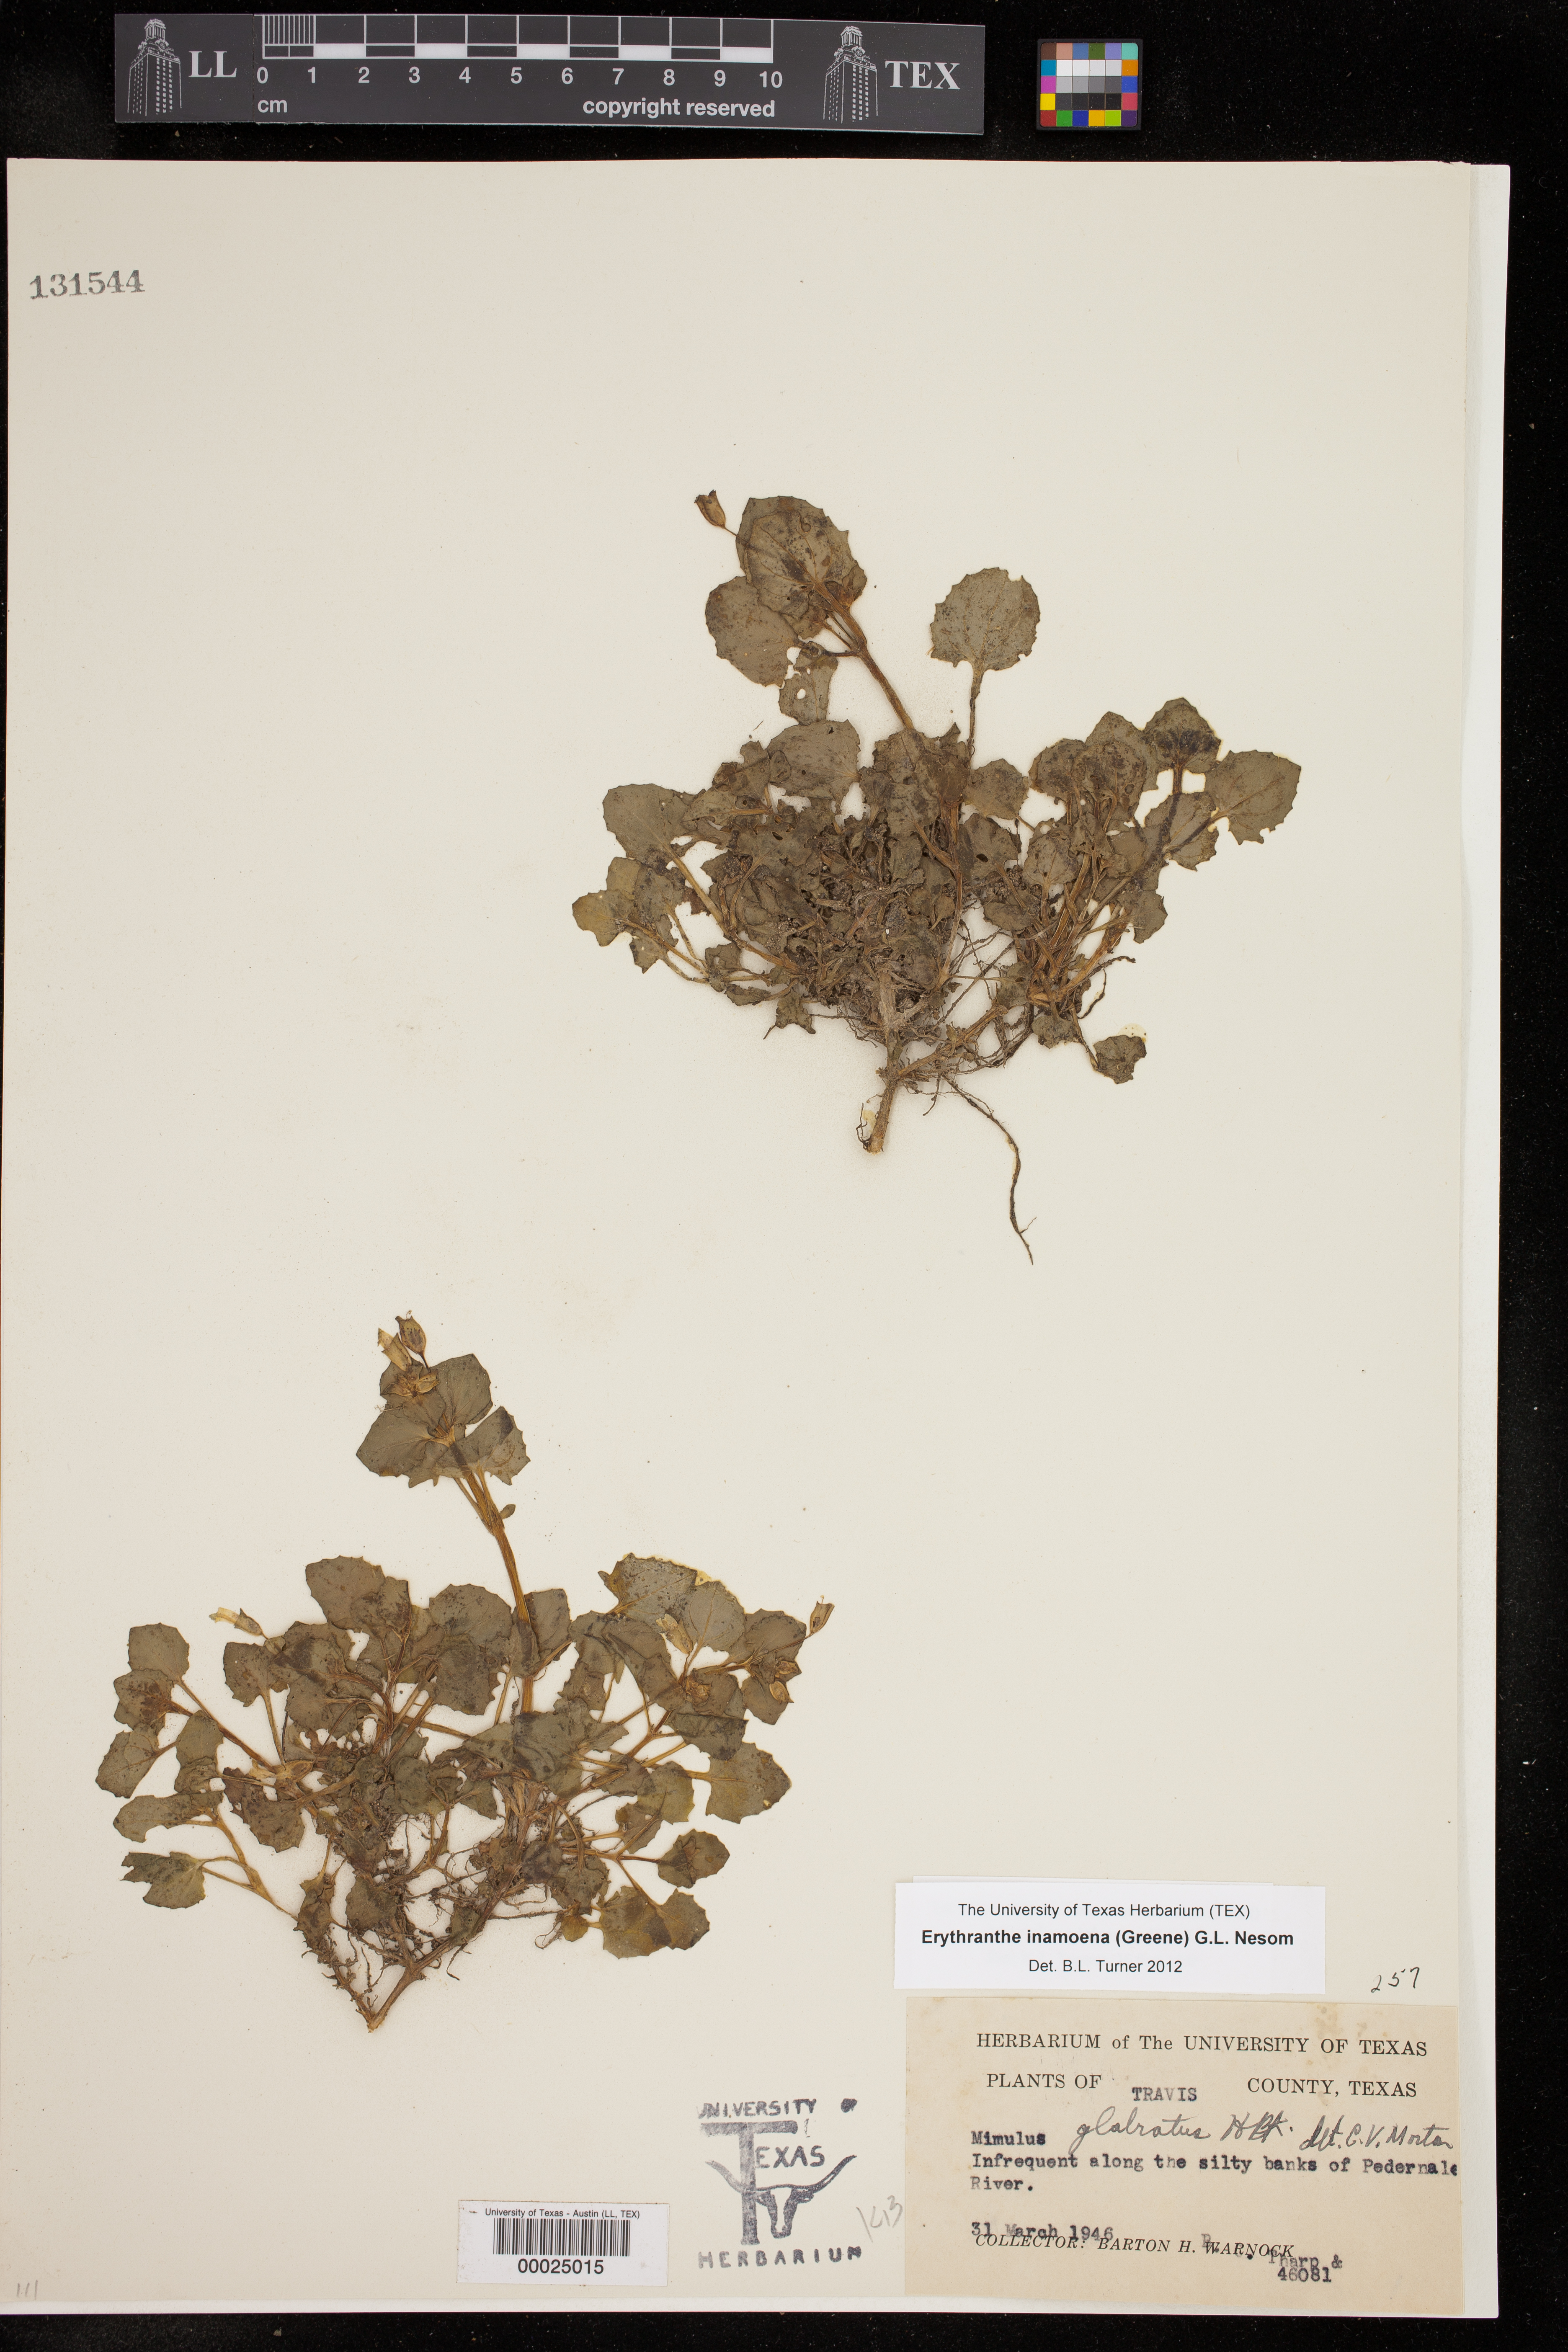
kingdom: Plantae
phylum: Tracheophyta
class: Magnoliopsida
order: Lamiales
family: Phrymaceae
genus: Erythranthe
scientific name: Erythranthe inamoena
